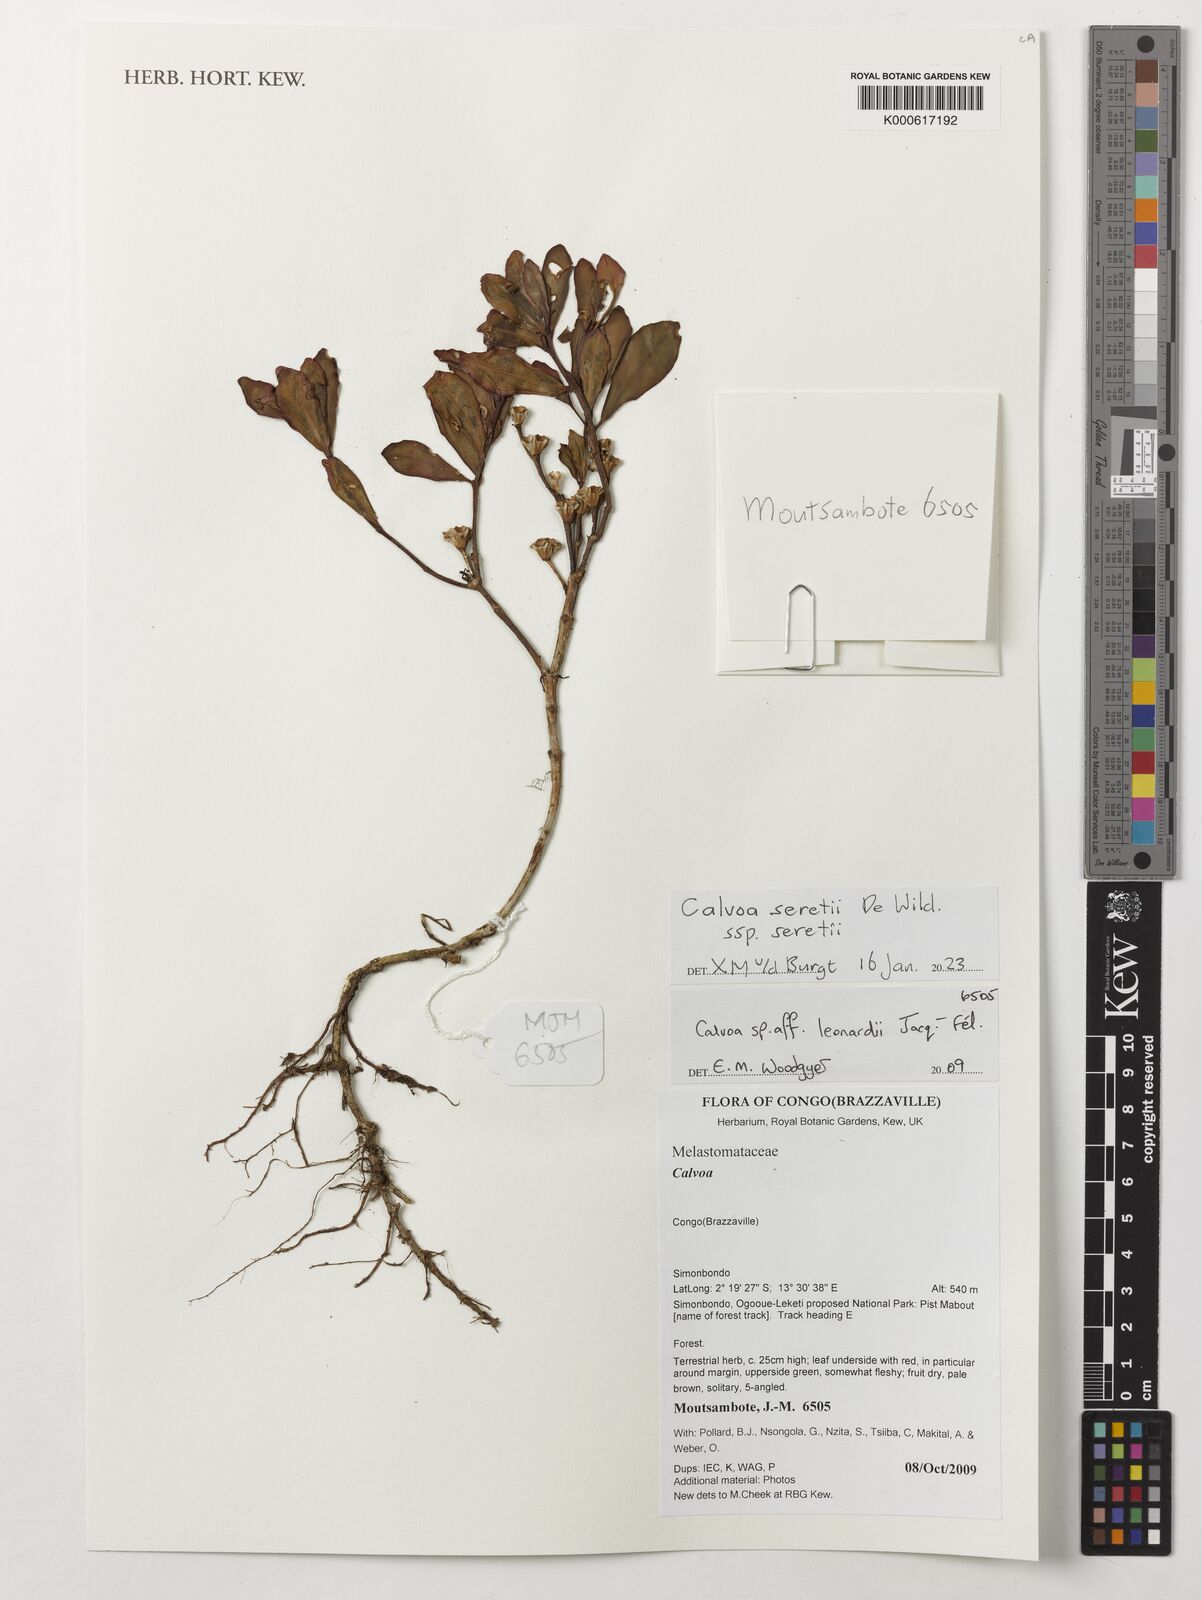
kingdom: Plantae
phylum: Tracheophyta
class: Magnoliopsida
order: Myrtales
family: Melastomataceae
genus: Calvoa
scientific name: Calvoa seretii
